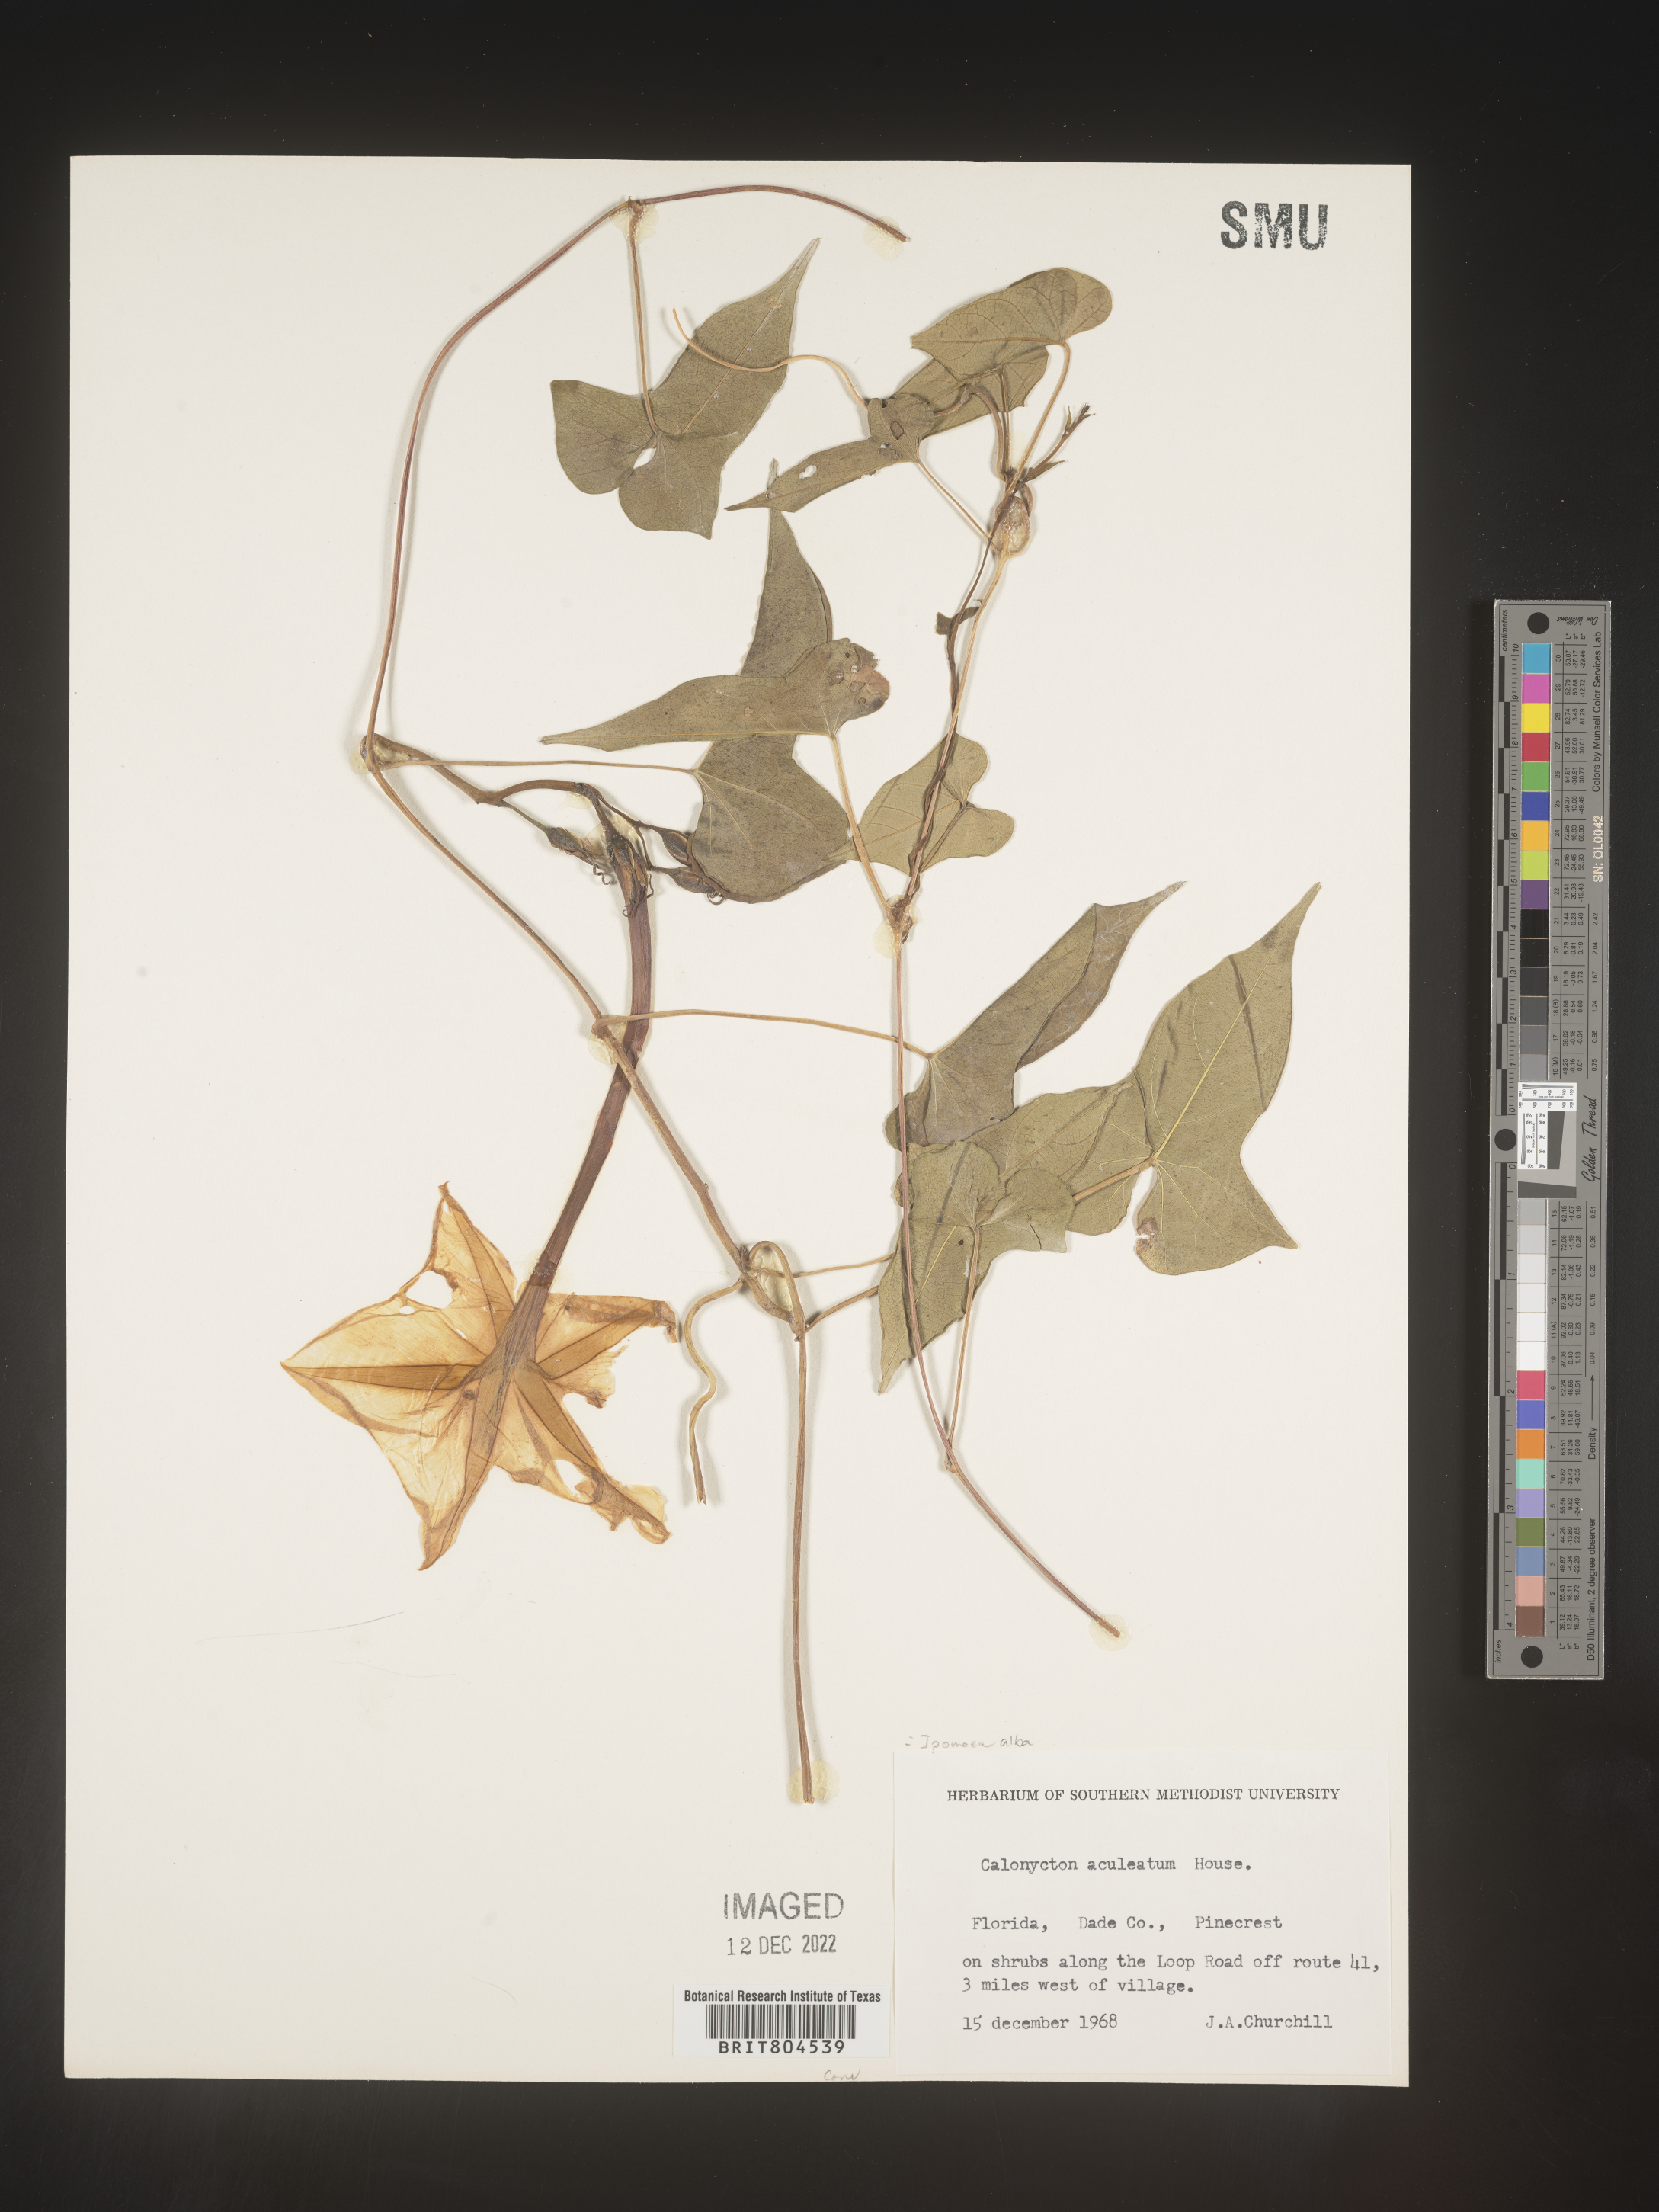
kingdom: Plantae
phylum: Tracheophyta
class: Magnoliopsida
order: Solanales
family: Convolvulaceae
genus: Ipomoea
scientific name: Ipomoea alba
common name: Moonflower
